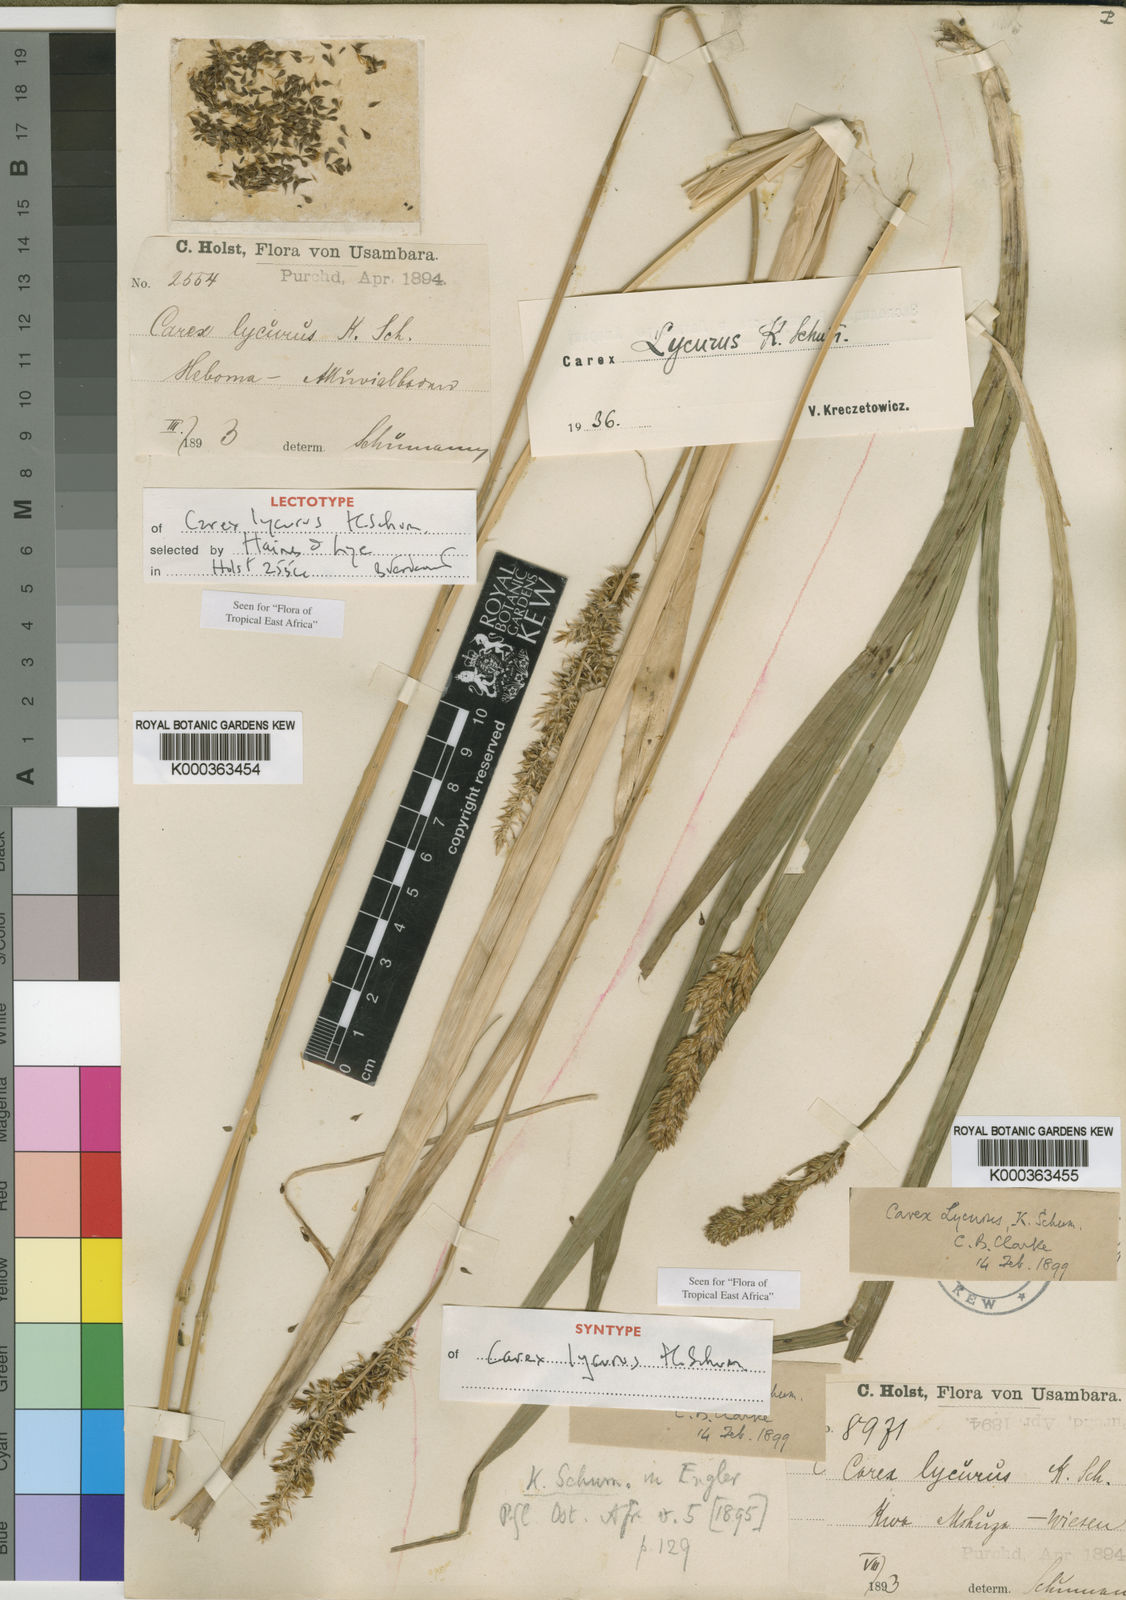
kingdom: Plantae
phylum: Tracheophyta
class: Liliopsida
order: Poales
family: Cyperaceae
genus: Carex
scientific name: Carex
